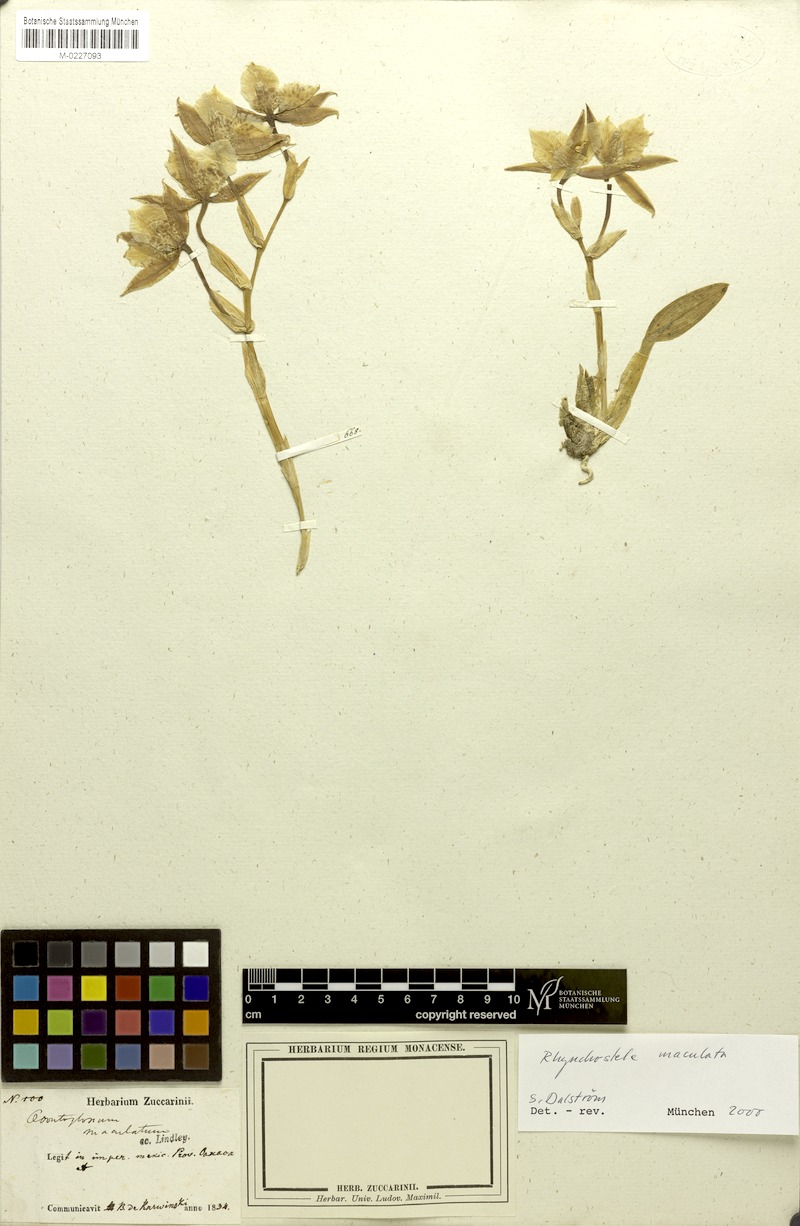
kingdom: Plantae
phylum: Tracheophyta
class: Liliopsida
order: Asparagales
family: Orchidaceae
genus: Rhynchostele
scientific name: Rhynchostele maculata
